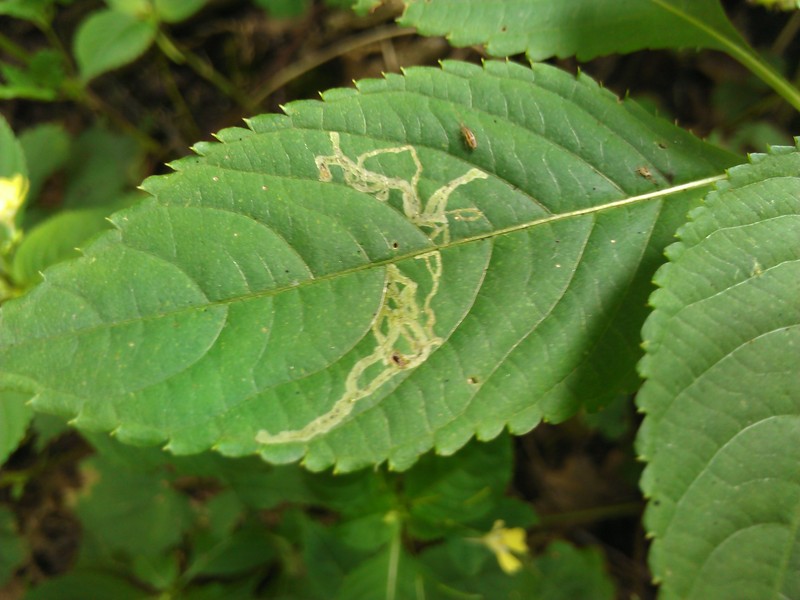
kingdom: Animalia
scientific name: Animalia
